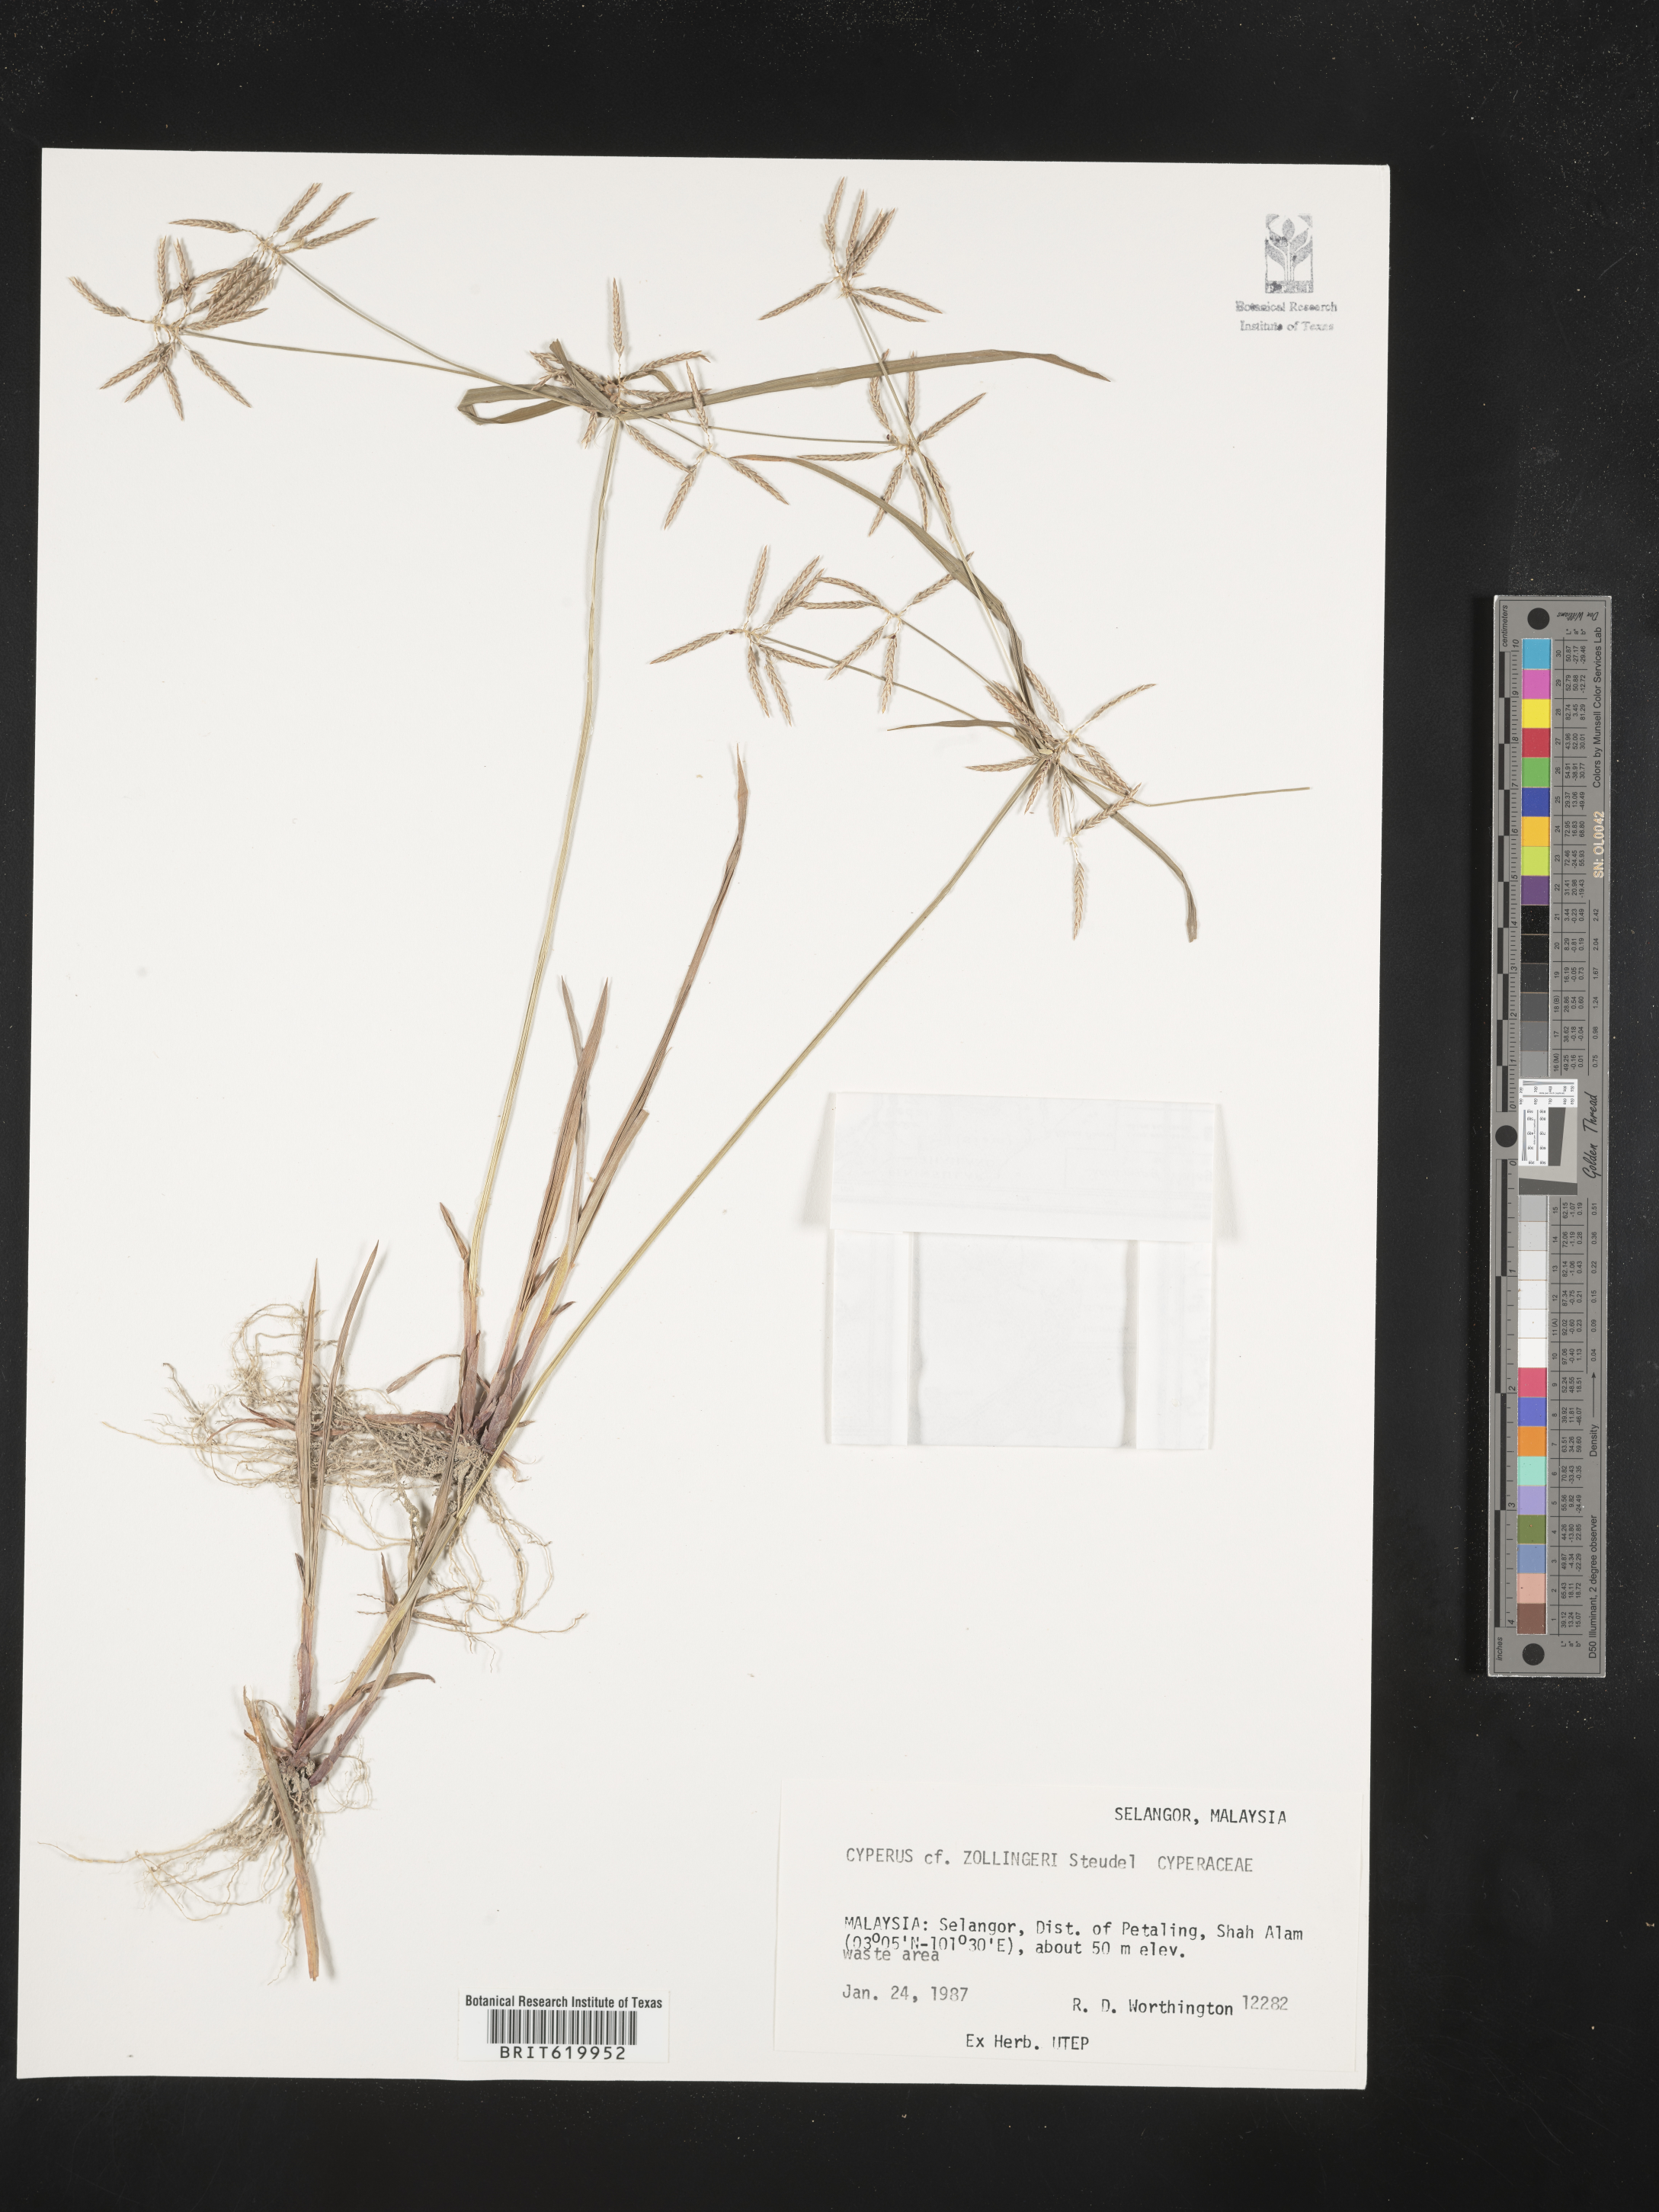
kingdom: Plantae
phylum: Tracheophyta
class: Liliopsida
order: Poales
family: Cyperaceae
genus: Cyperus
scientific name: Cyperus zollingeri
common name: Roadside flatsedge
